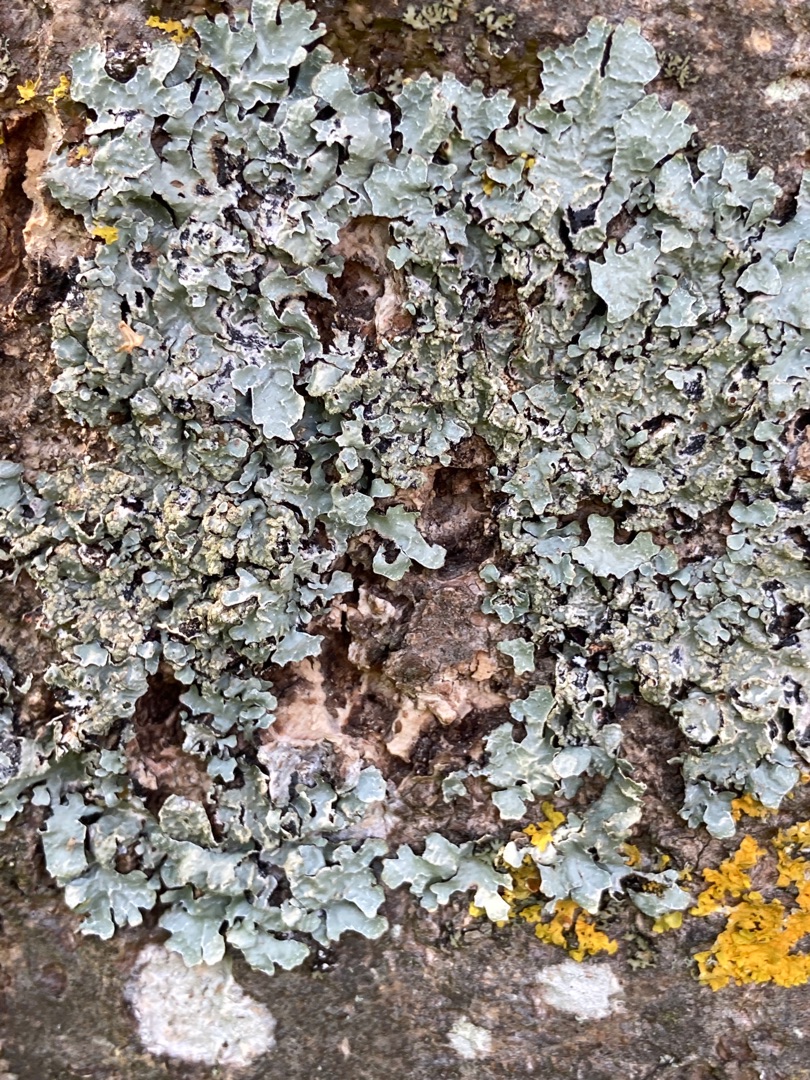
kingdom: Fungi
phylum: Ascomycota
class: Lecanoromycetes
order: Lecanorales
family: Parmeliaceae
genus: Parmelia
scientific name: Parmelia sulcata
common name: Rynket skållav
